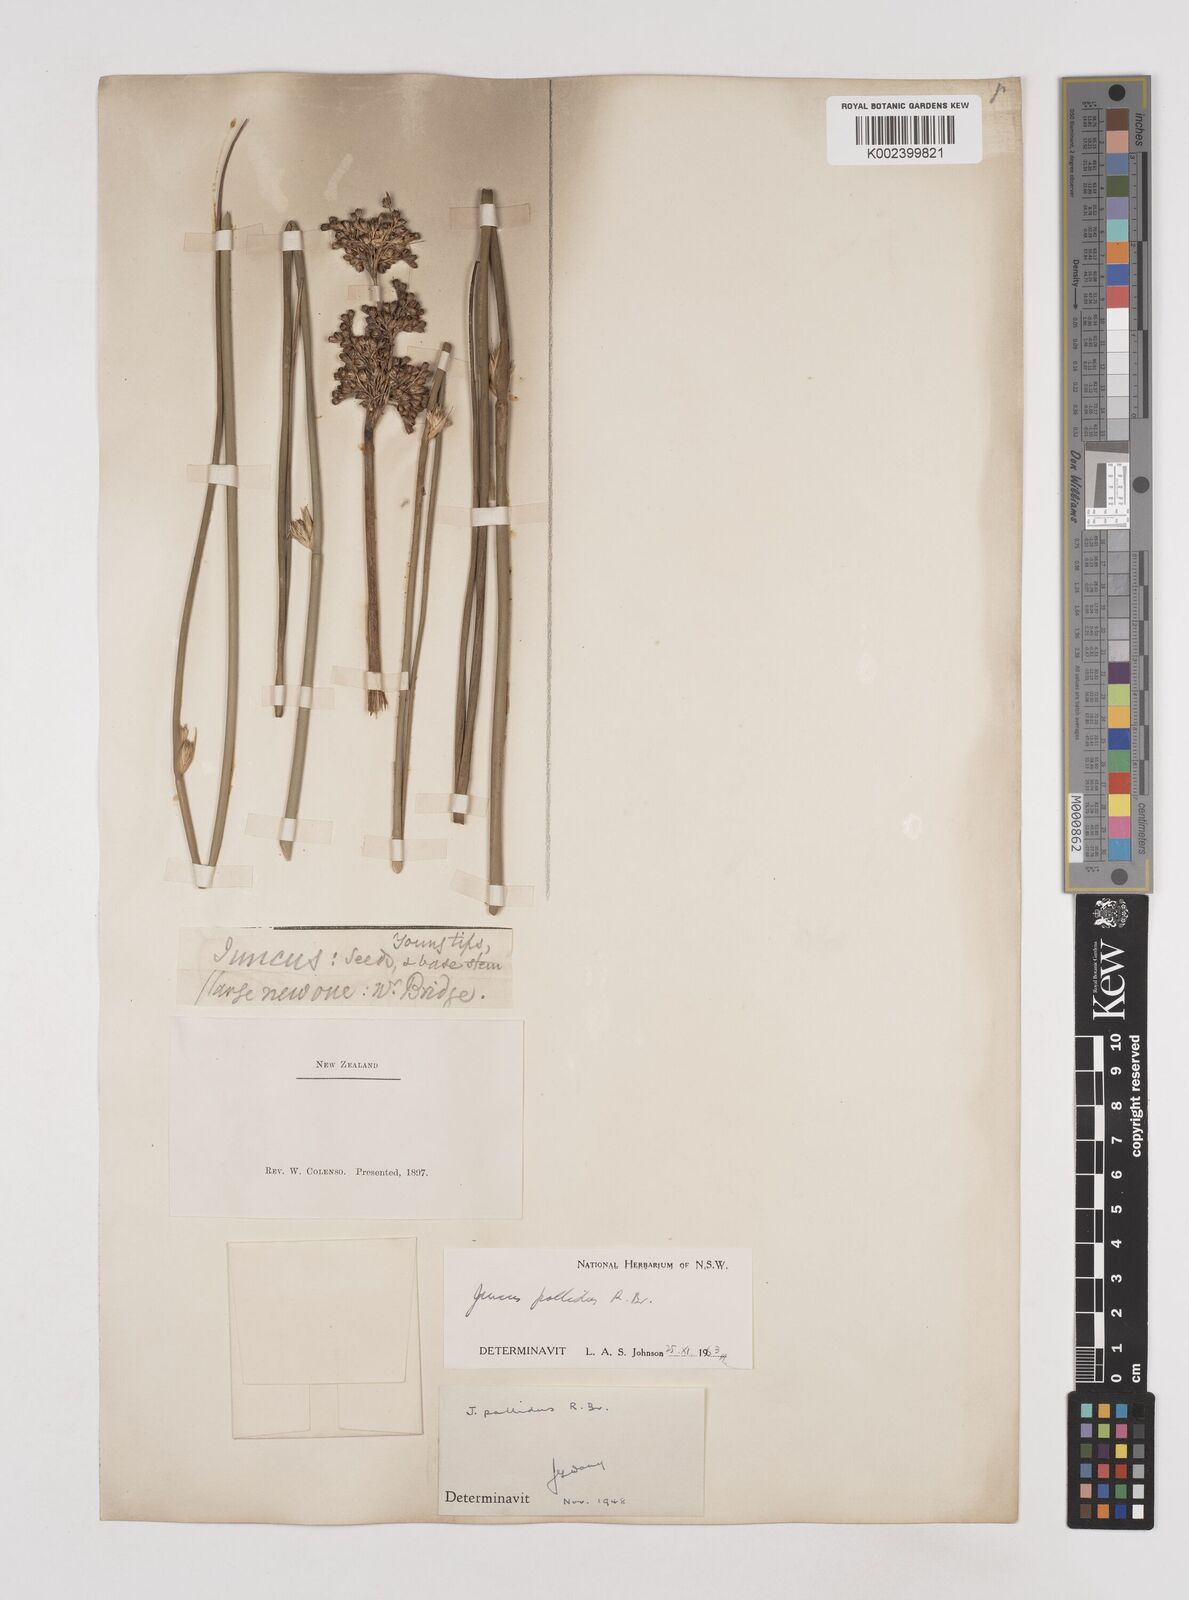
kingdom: Plantae
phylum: Tracheophyta
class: Liliopsida
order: Poales
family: Juncaceae
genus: Juncus
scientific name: Juncus pallidus
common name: Great soft-rush
